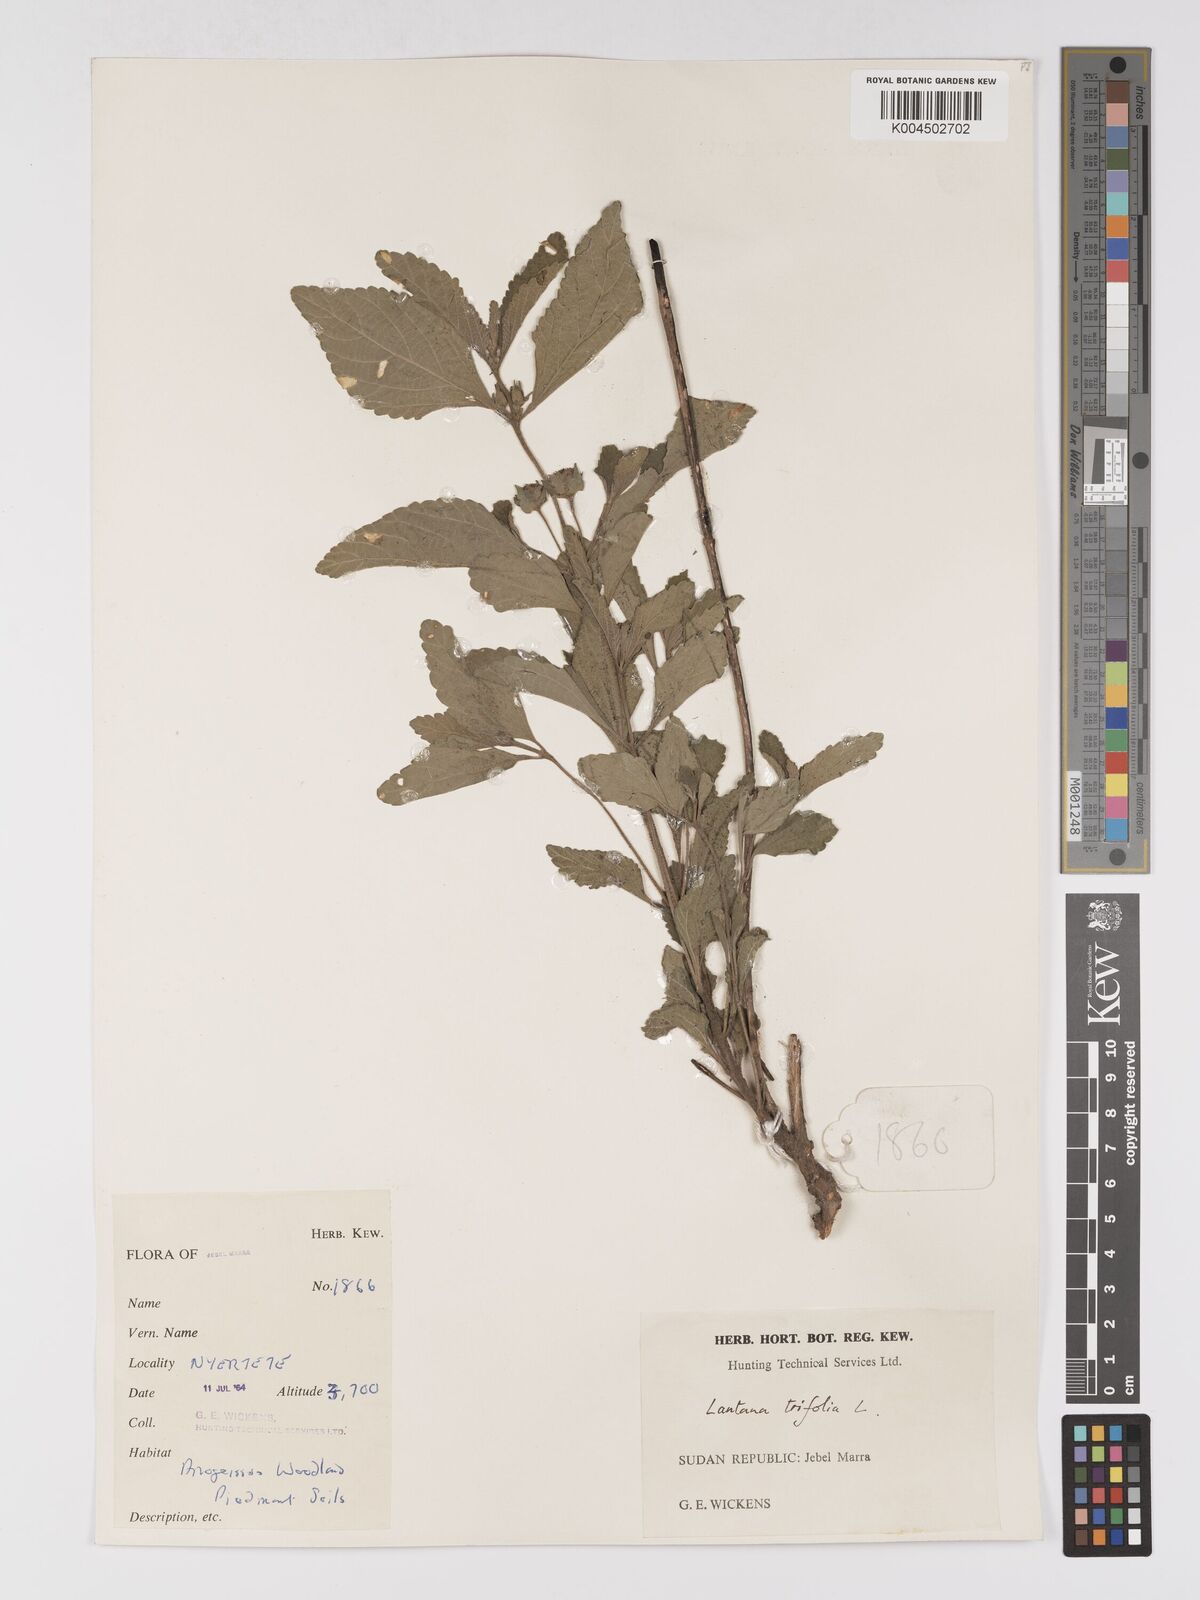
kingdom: Plantae
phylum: Tracheophyta
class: Magnoliopsida
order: Lamiales
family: Verbenaceae
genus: Lantana
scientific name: Lantana ukambensis
